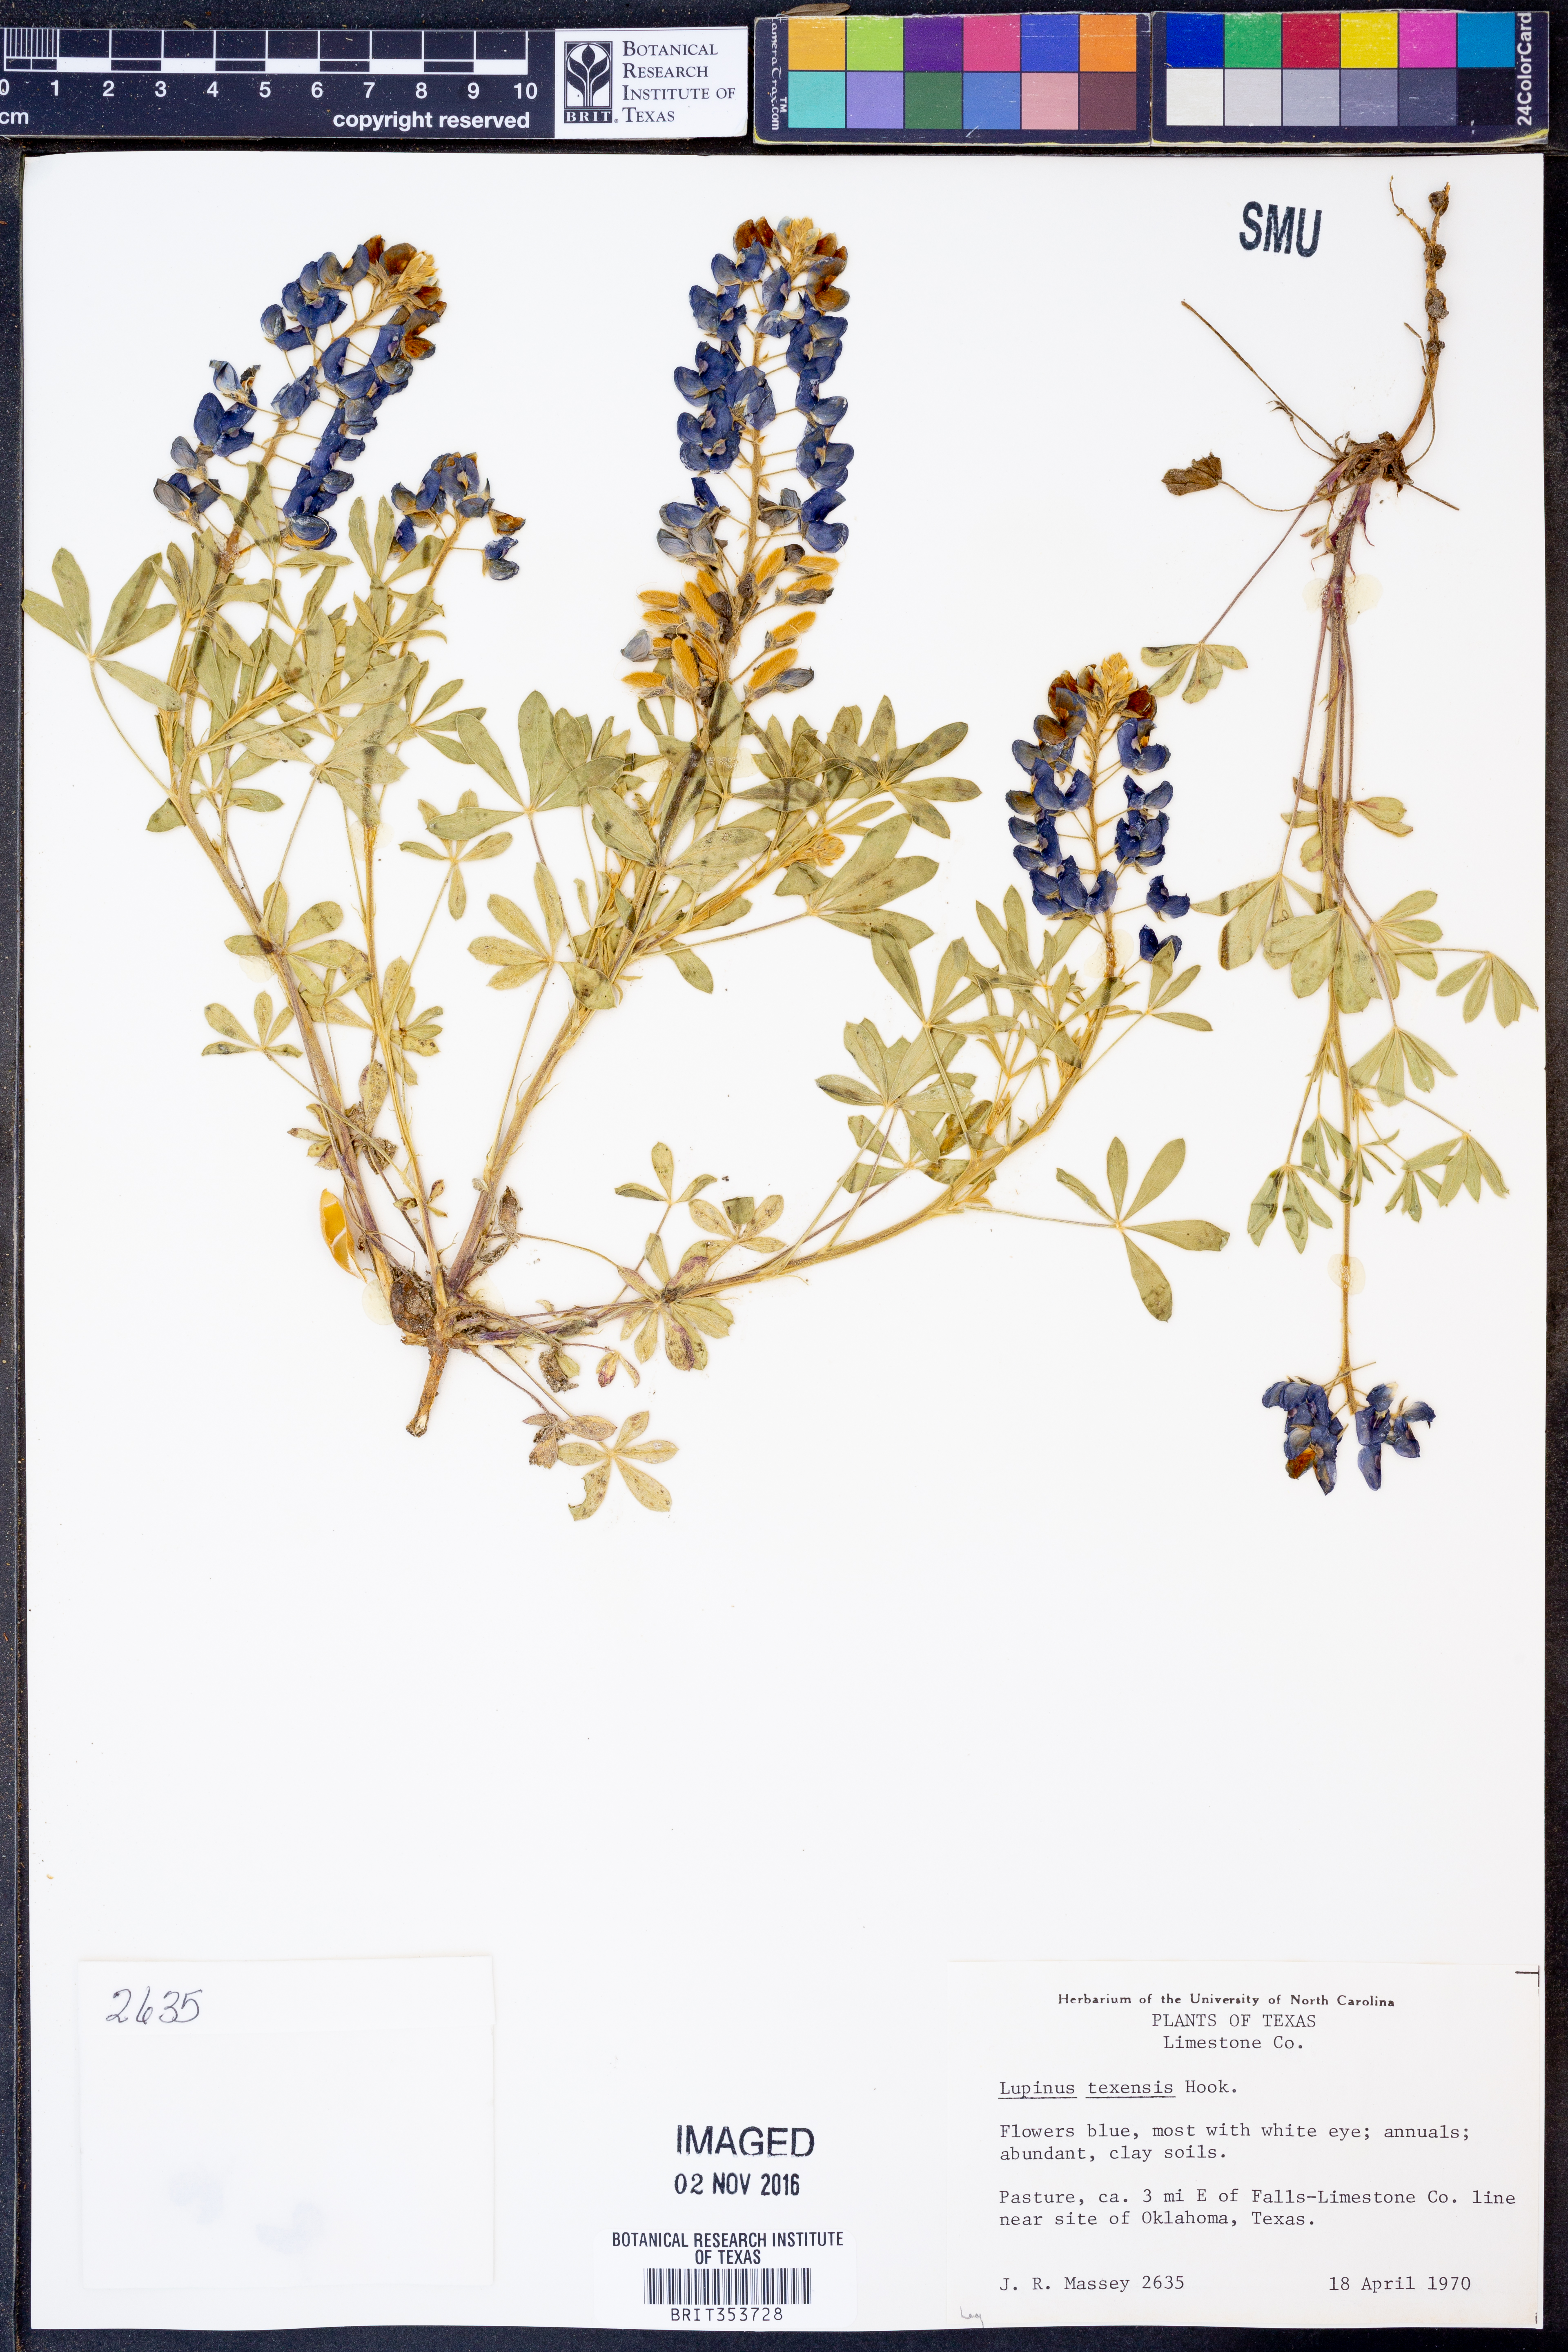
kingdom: Plantae
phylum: Tracheophyta
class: Magnoliopsida
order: Fabales
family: Fabaceae
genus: Lupinus
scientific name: Lupinus texensis
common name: Texas bluebonnet
